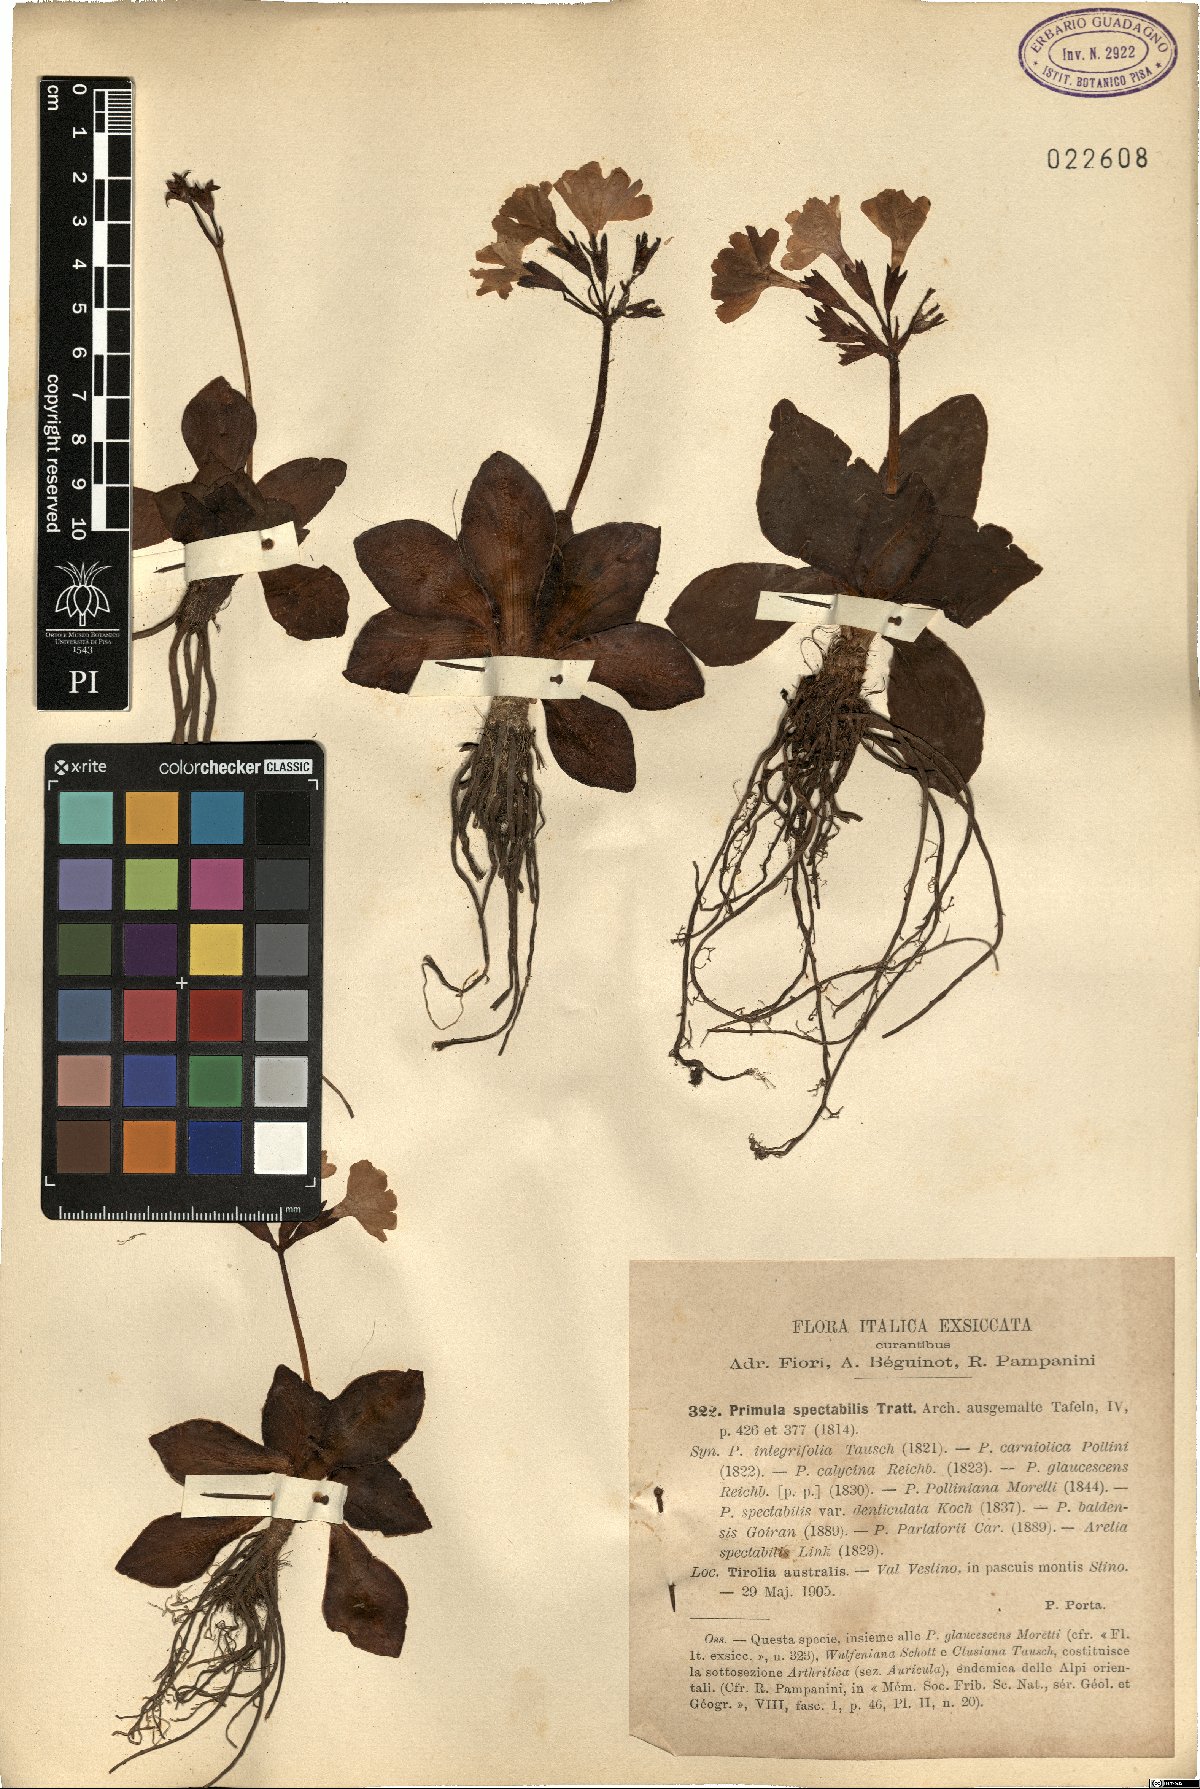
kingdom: Plantae
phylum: Tracheophyta
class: Magnoliopsida
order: Ericales
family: Primulaceae
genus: Primula
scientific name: Primula spectabilis
